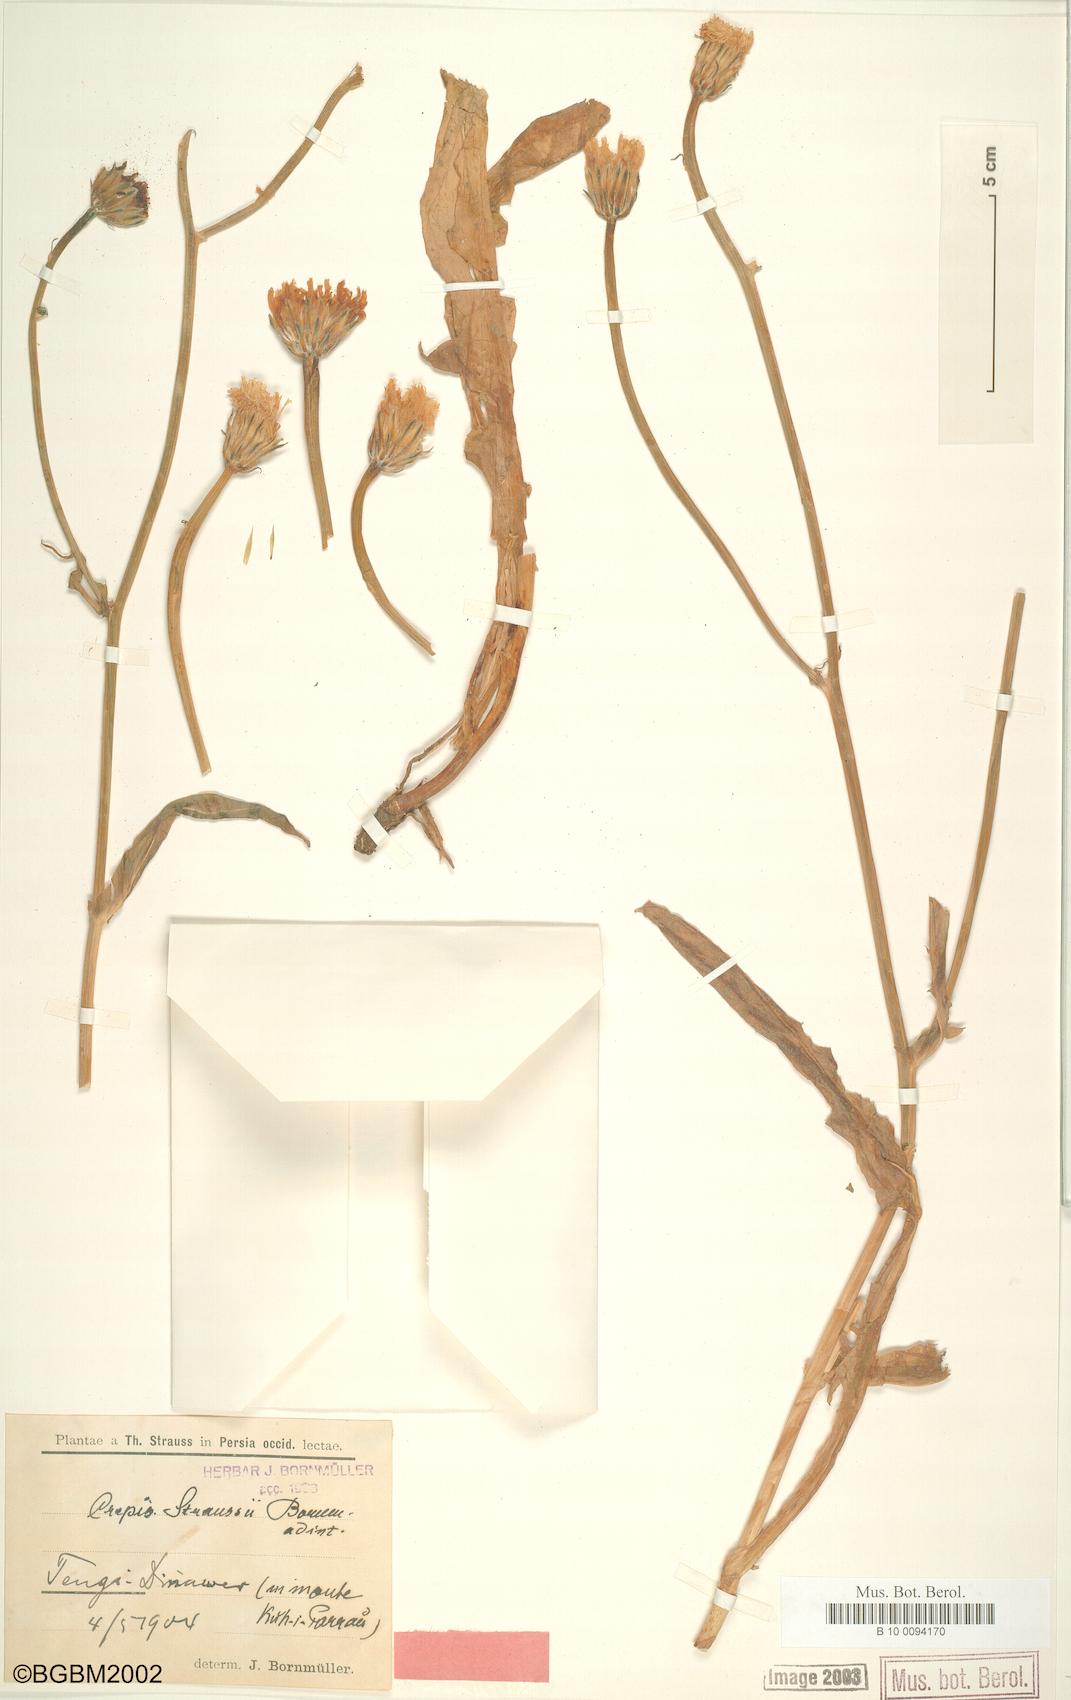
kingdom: Plantae
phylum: Tracheophyta
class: Magnoliopsida
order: Asterales
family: Asteraceae
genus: Crepis
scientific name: Crepis straussii
